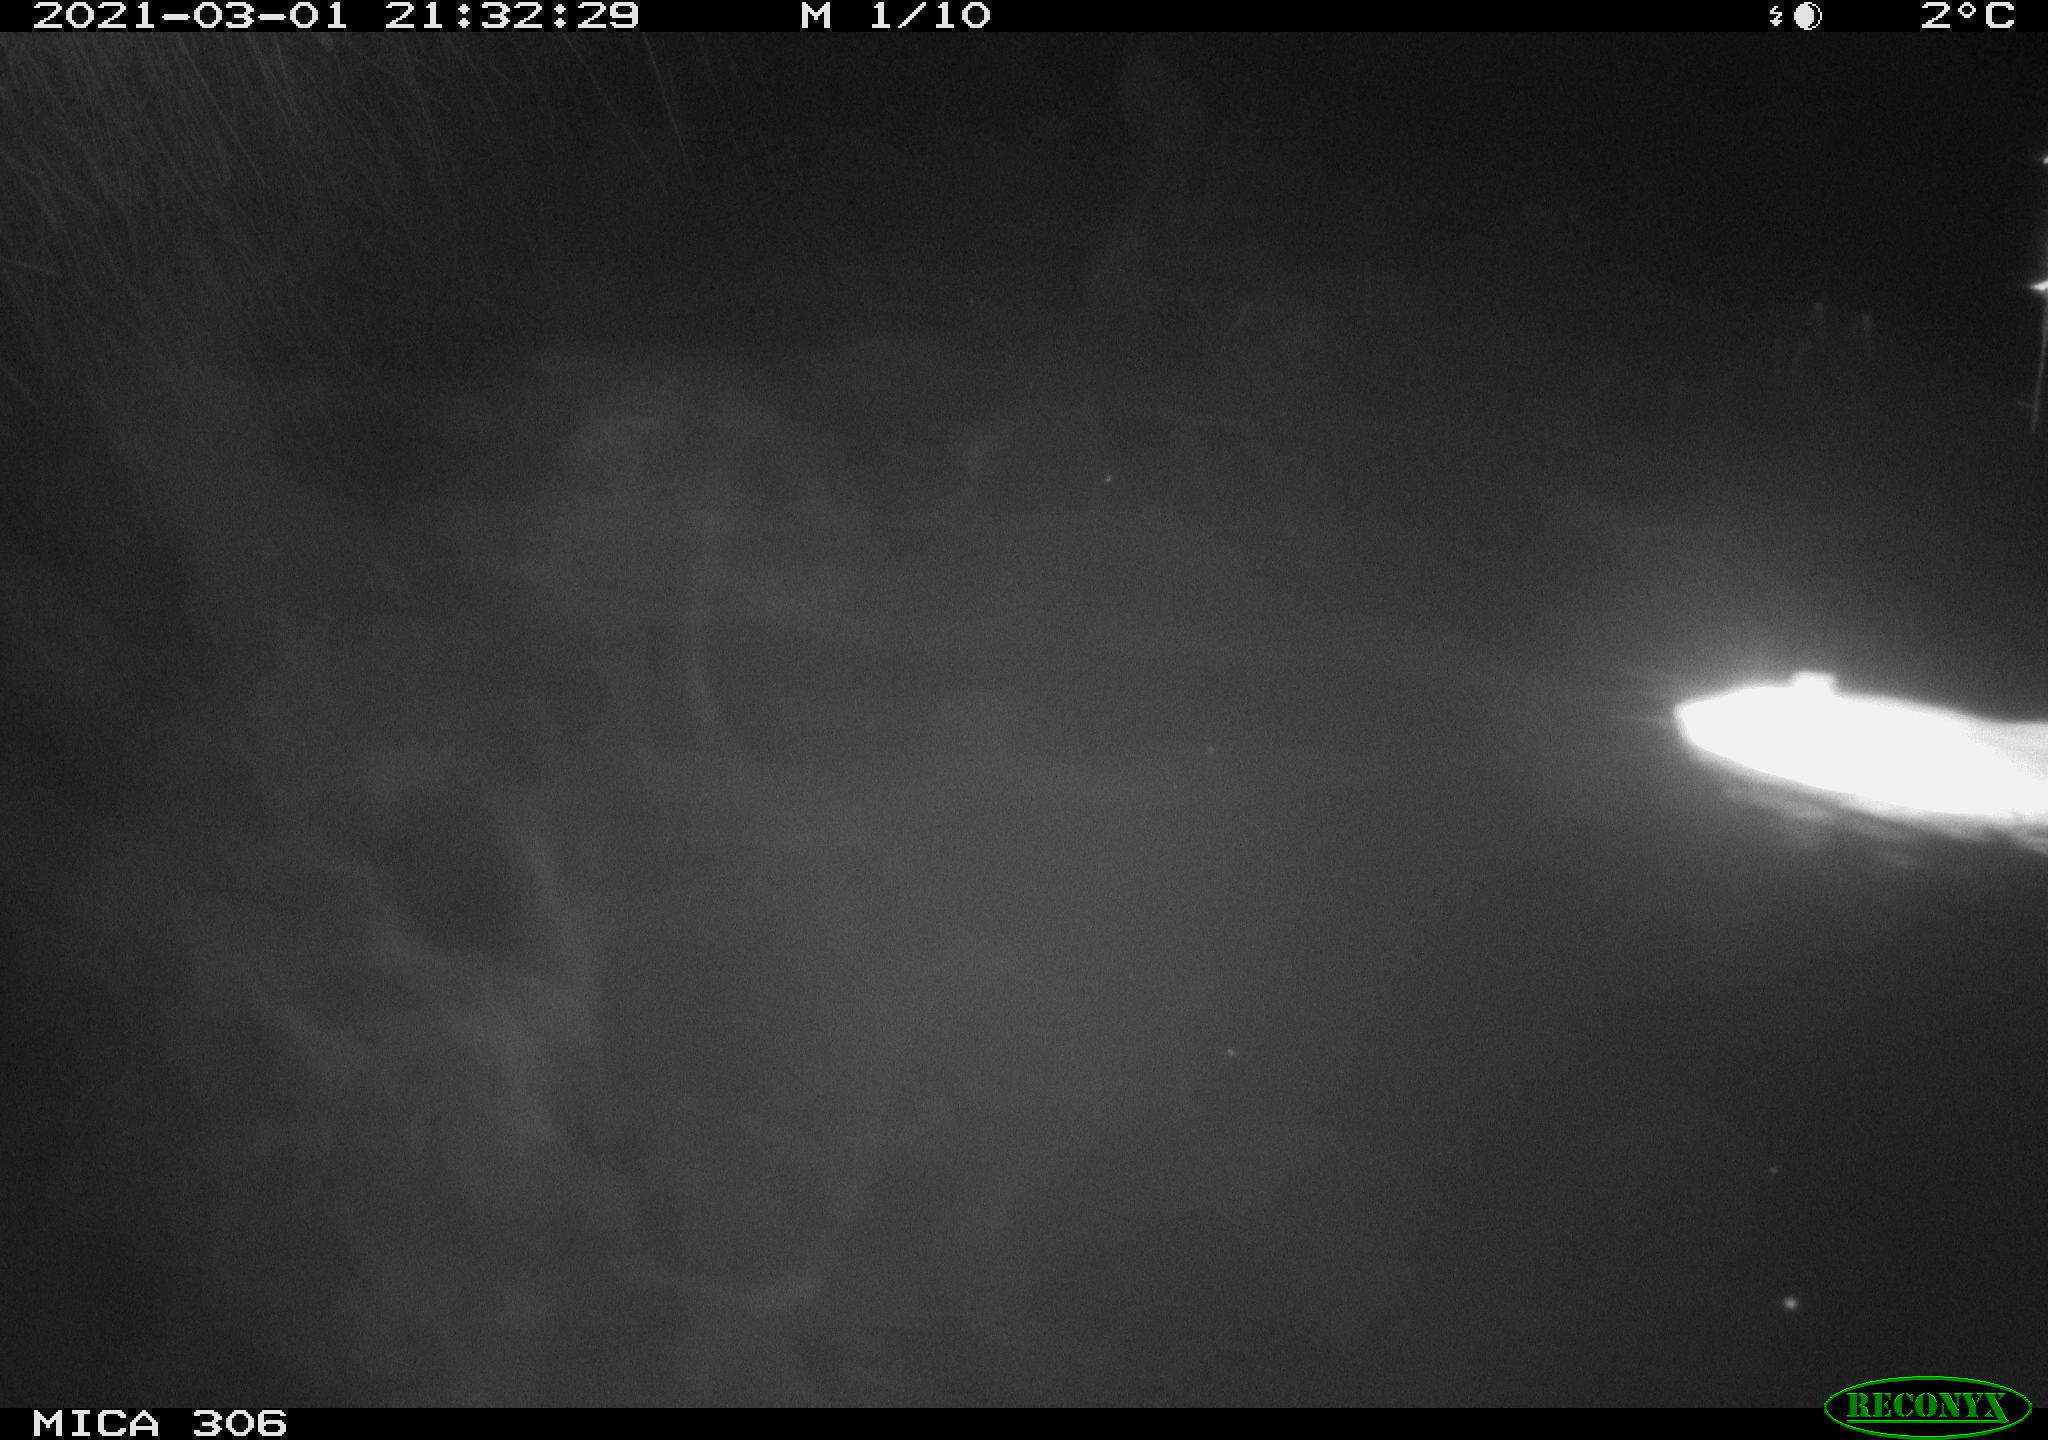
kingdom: Animalia
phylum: Chordata
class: Mammalia
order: Rodentia
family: Muridae
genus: Rattus
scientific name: Rattus norvegicus
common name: Brown rat
